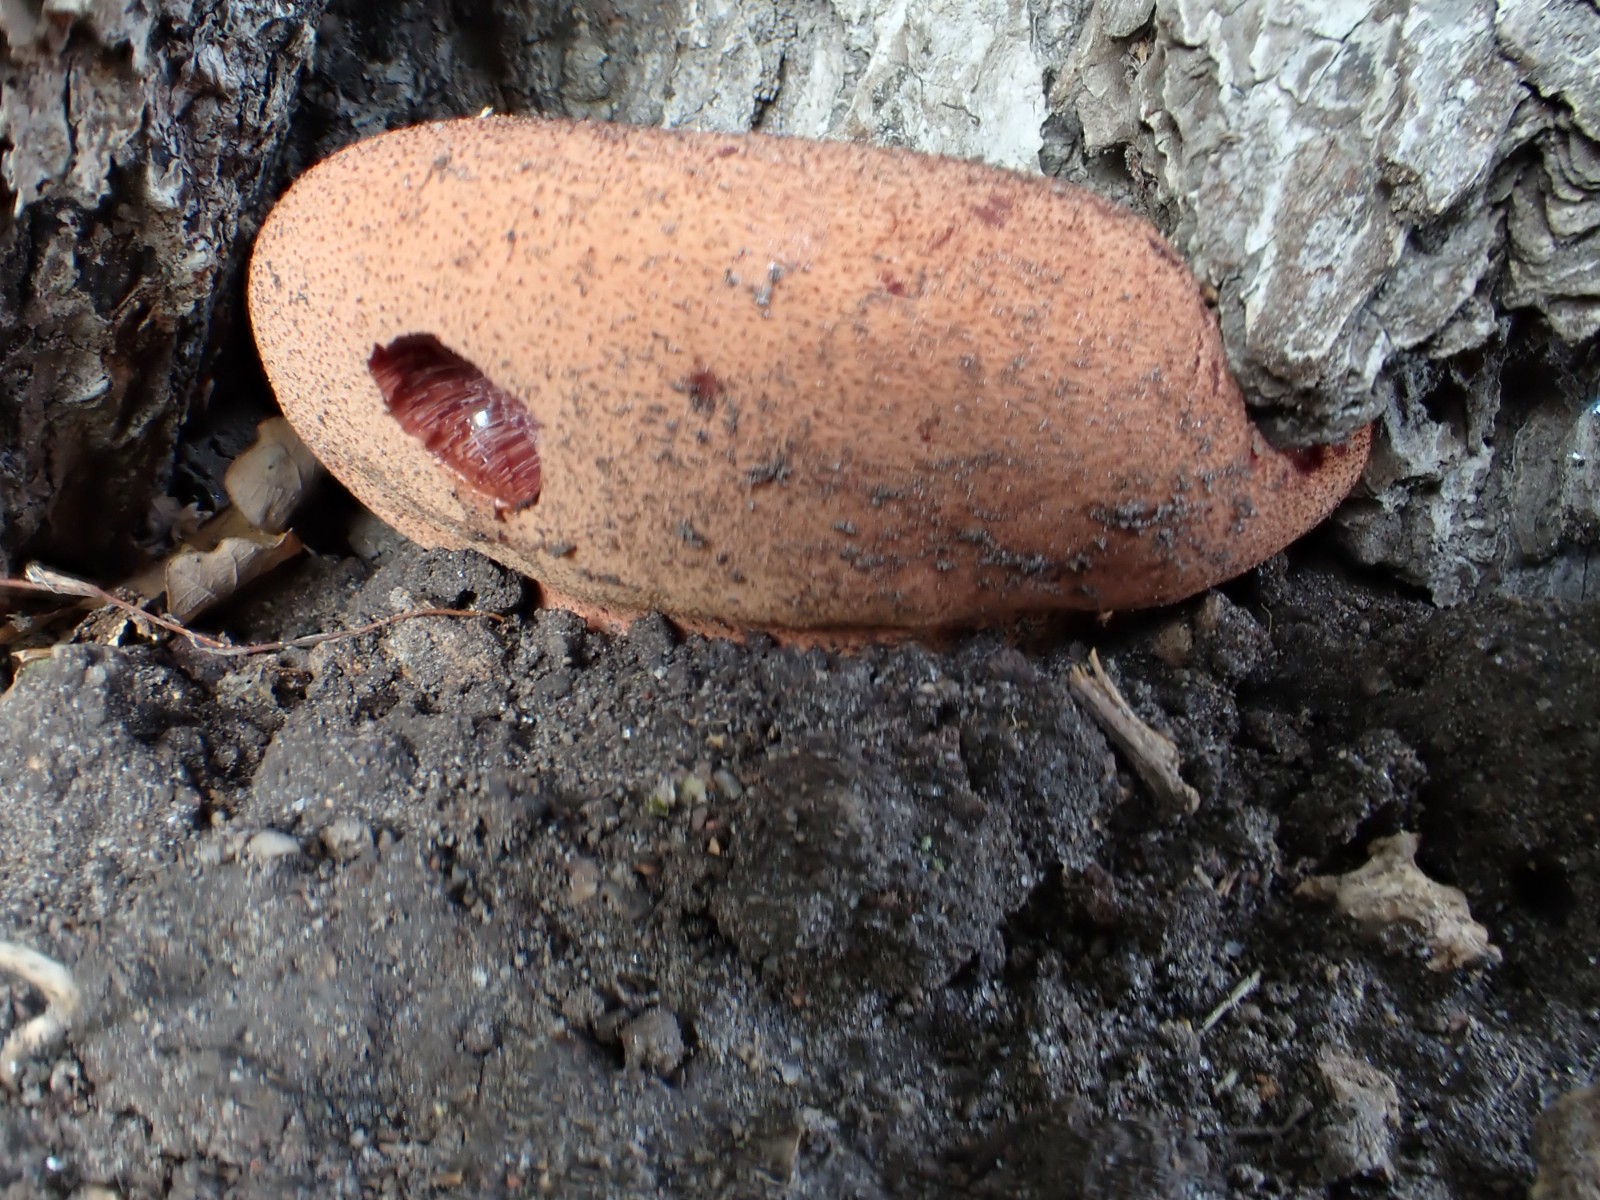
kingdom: Fungi
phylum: Basidiomycota
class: Agaricomycetes
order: Agaricales
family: Fistulinaceae
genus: Fistulina
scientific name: Fistulina hepatica
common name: oksetunge
